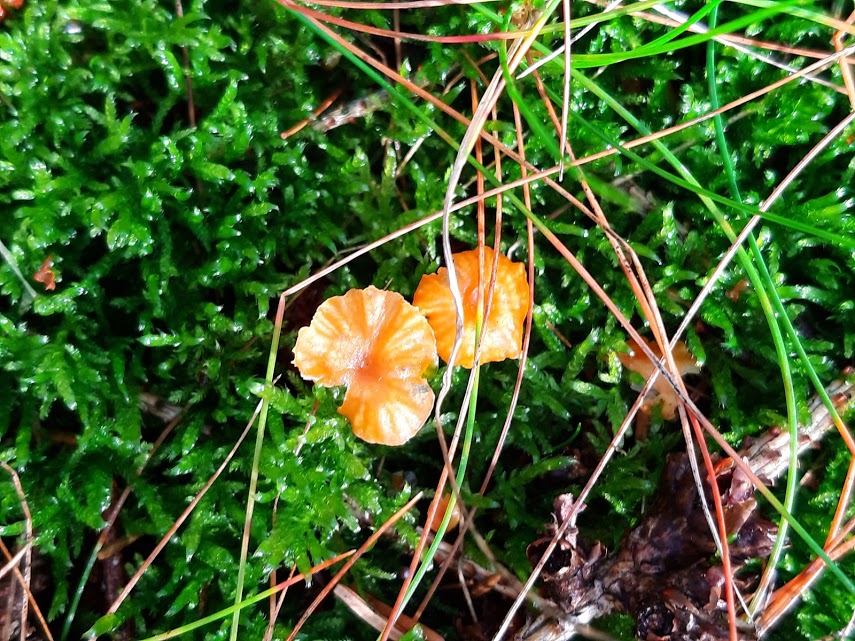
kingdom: Fungi
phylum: Basidiomycota
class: Agaricomycetes
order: Hymenochaetales
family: Rickenellaceae
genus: Rickenella
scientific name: Rickenella fibula
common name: orange mosnavlehat
